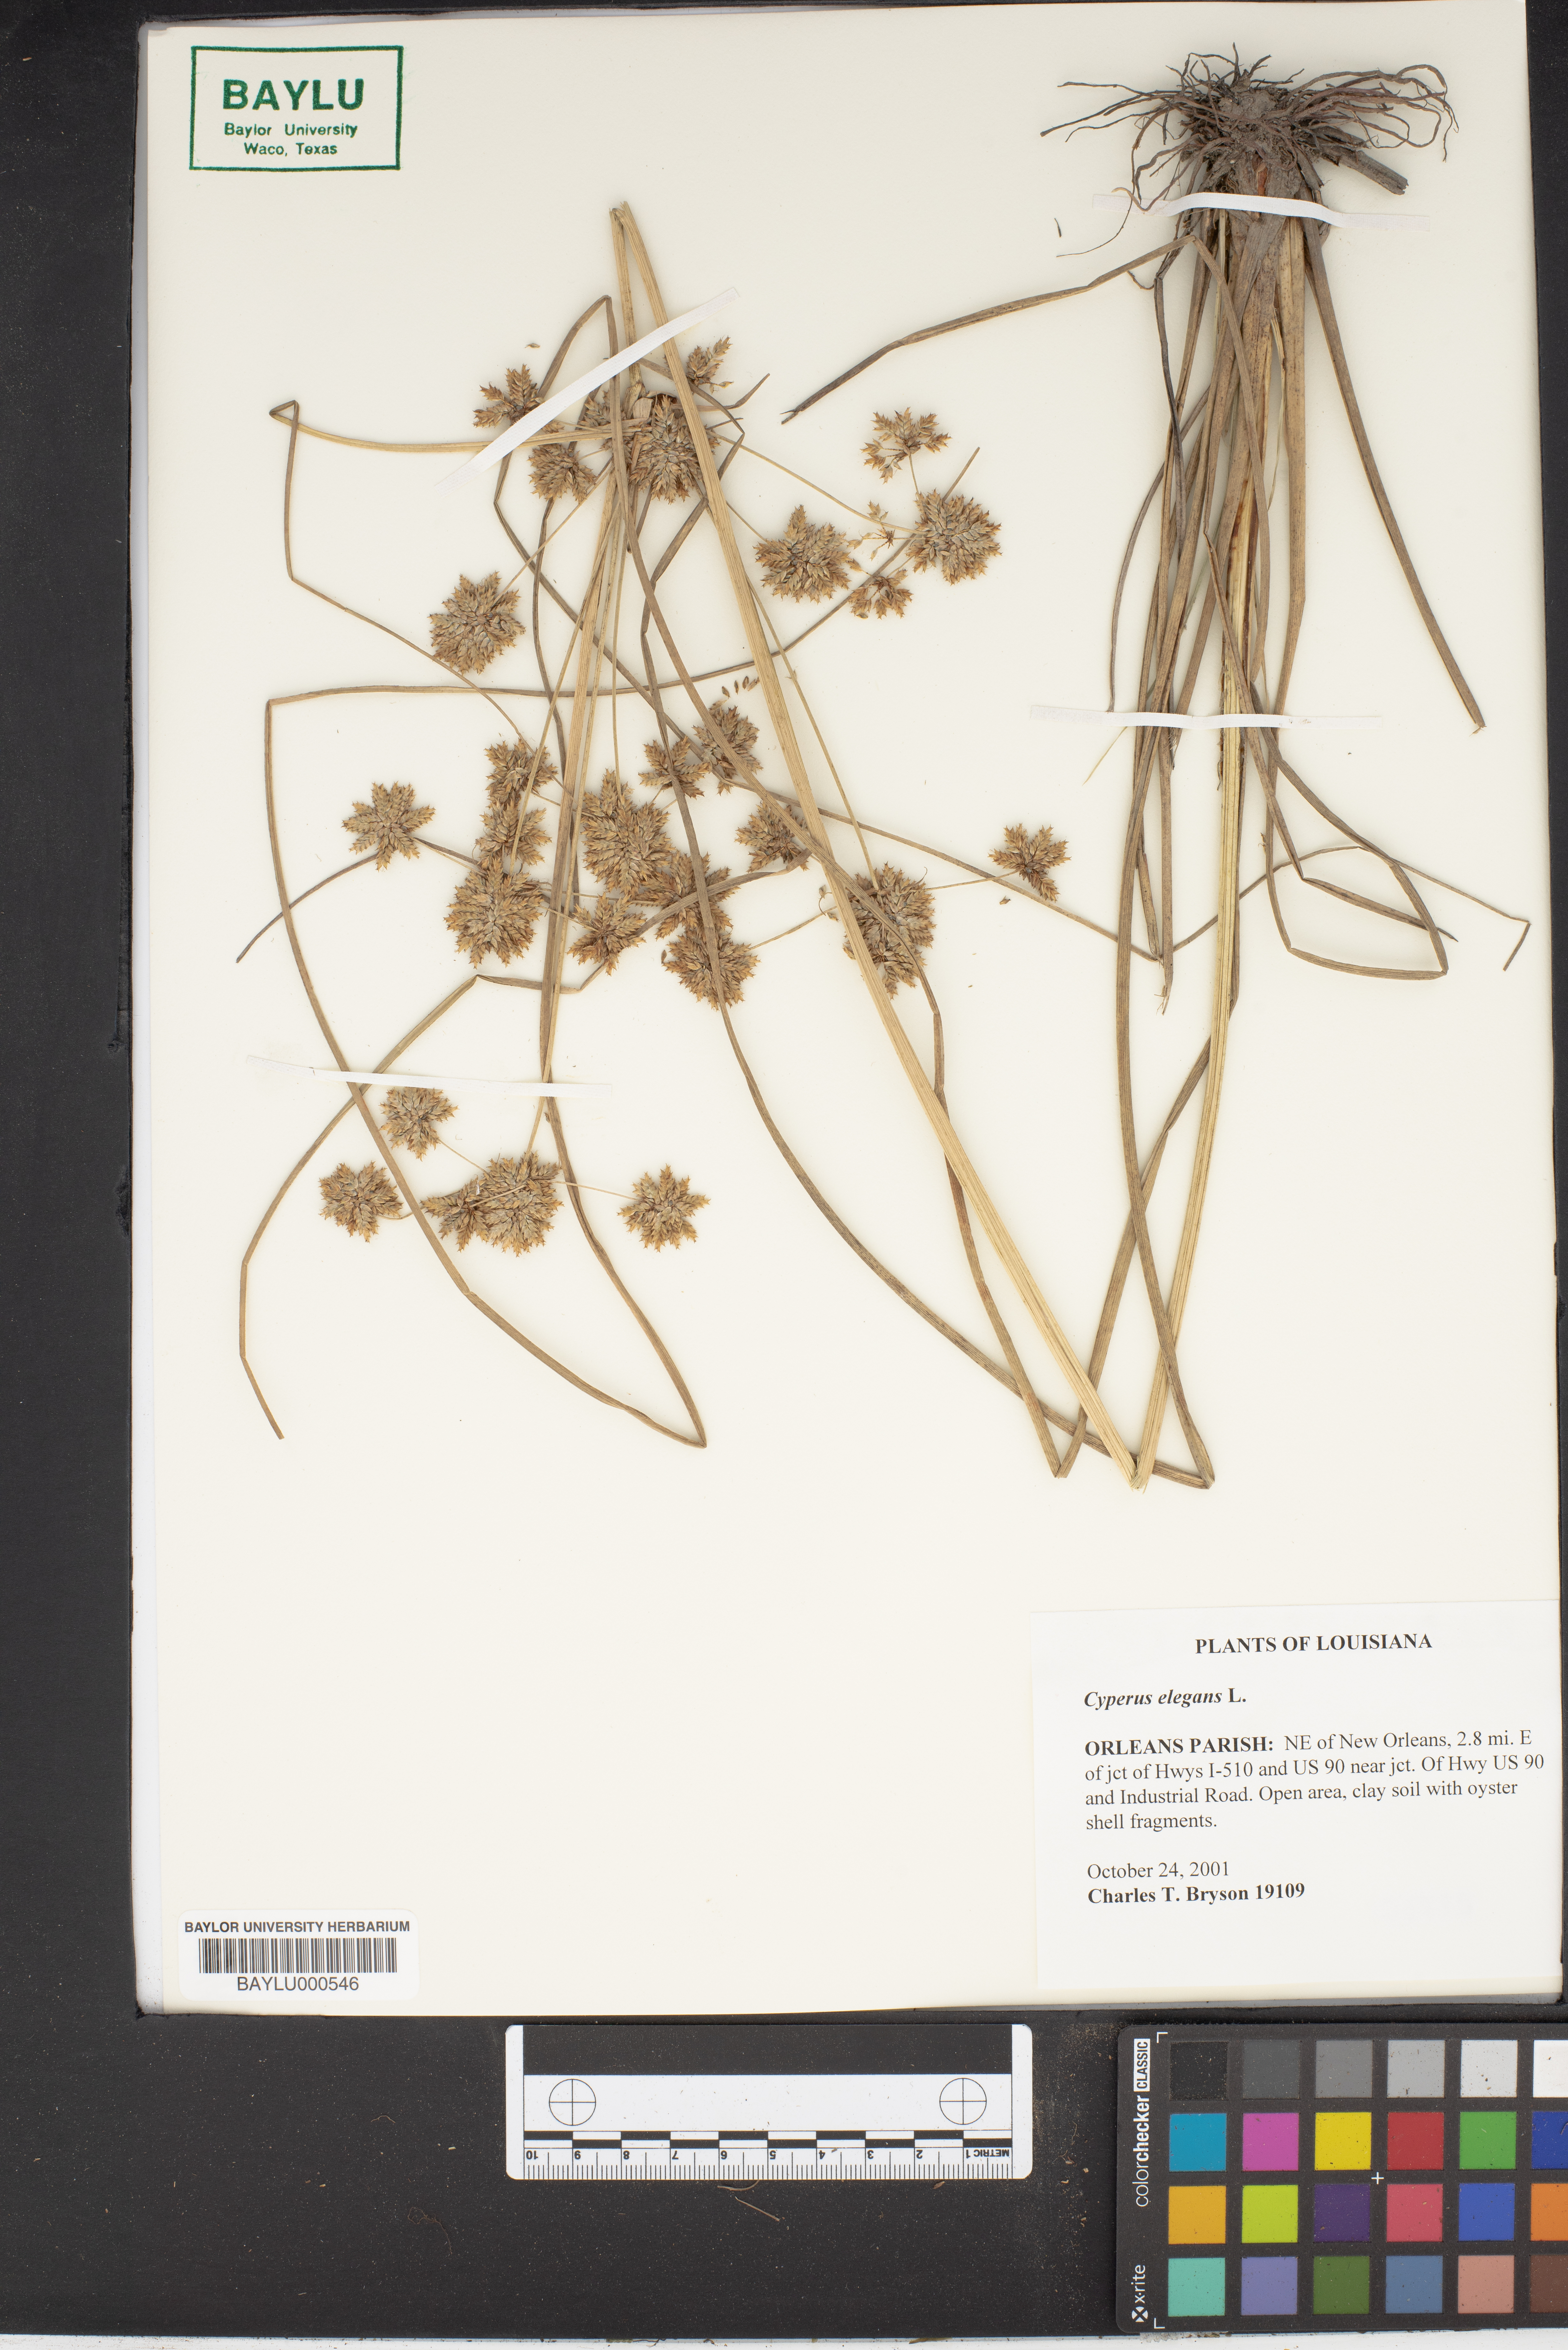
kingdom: Plantae
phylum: Tracheophyta
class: Liliopsida
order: Poales
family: Cyperaceae
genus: Cyperus
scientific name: Cyperus elegans
